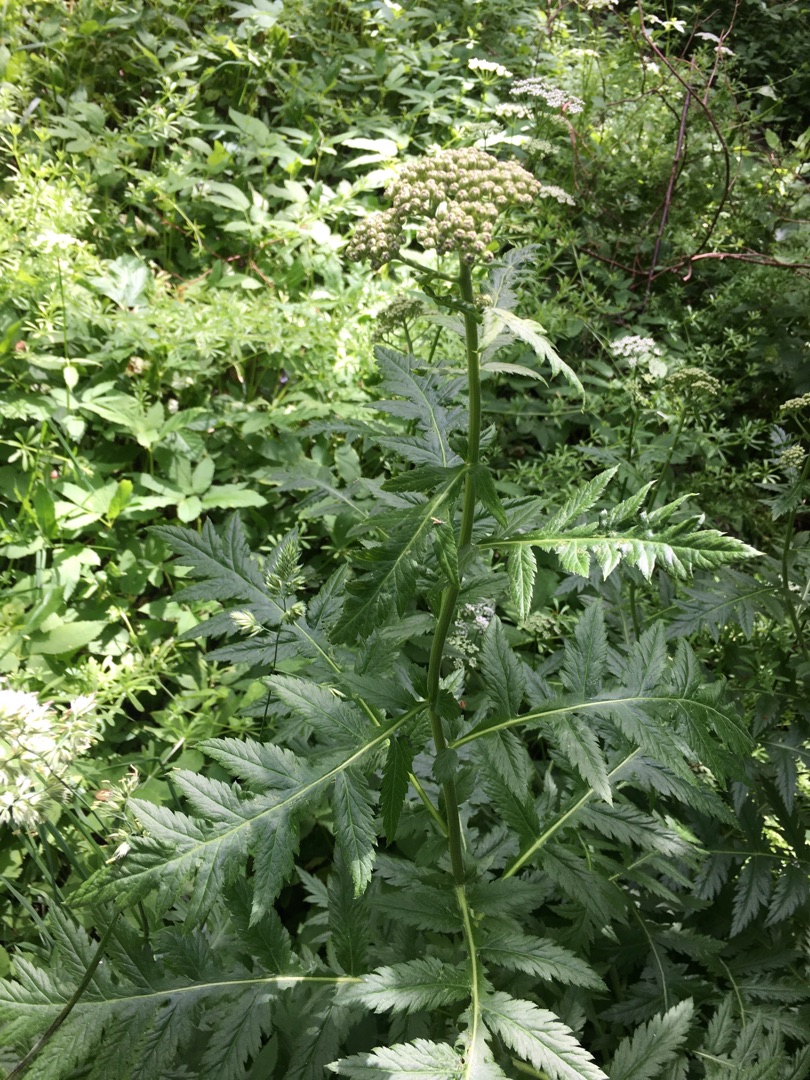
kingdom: Plantae
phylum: Tracheophyta
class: Magnoliopsida
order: Asterales
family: Asteraceae
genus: Tanacetum
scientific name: Tanacetum macrophyllum
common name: Røllike-matrem
